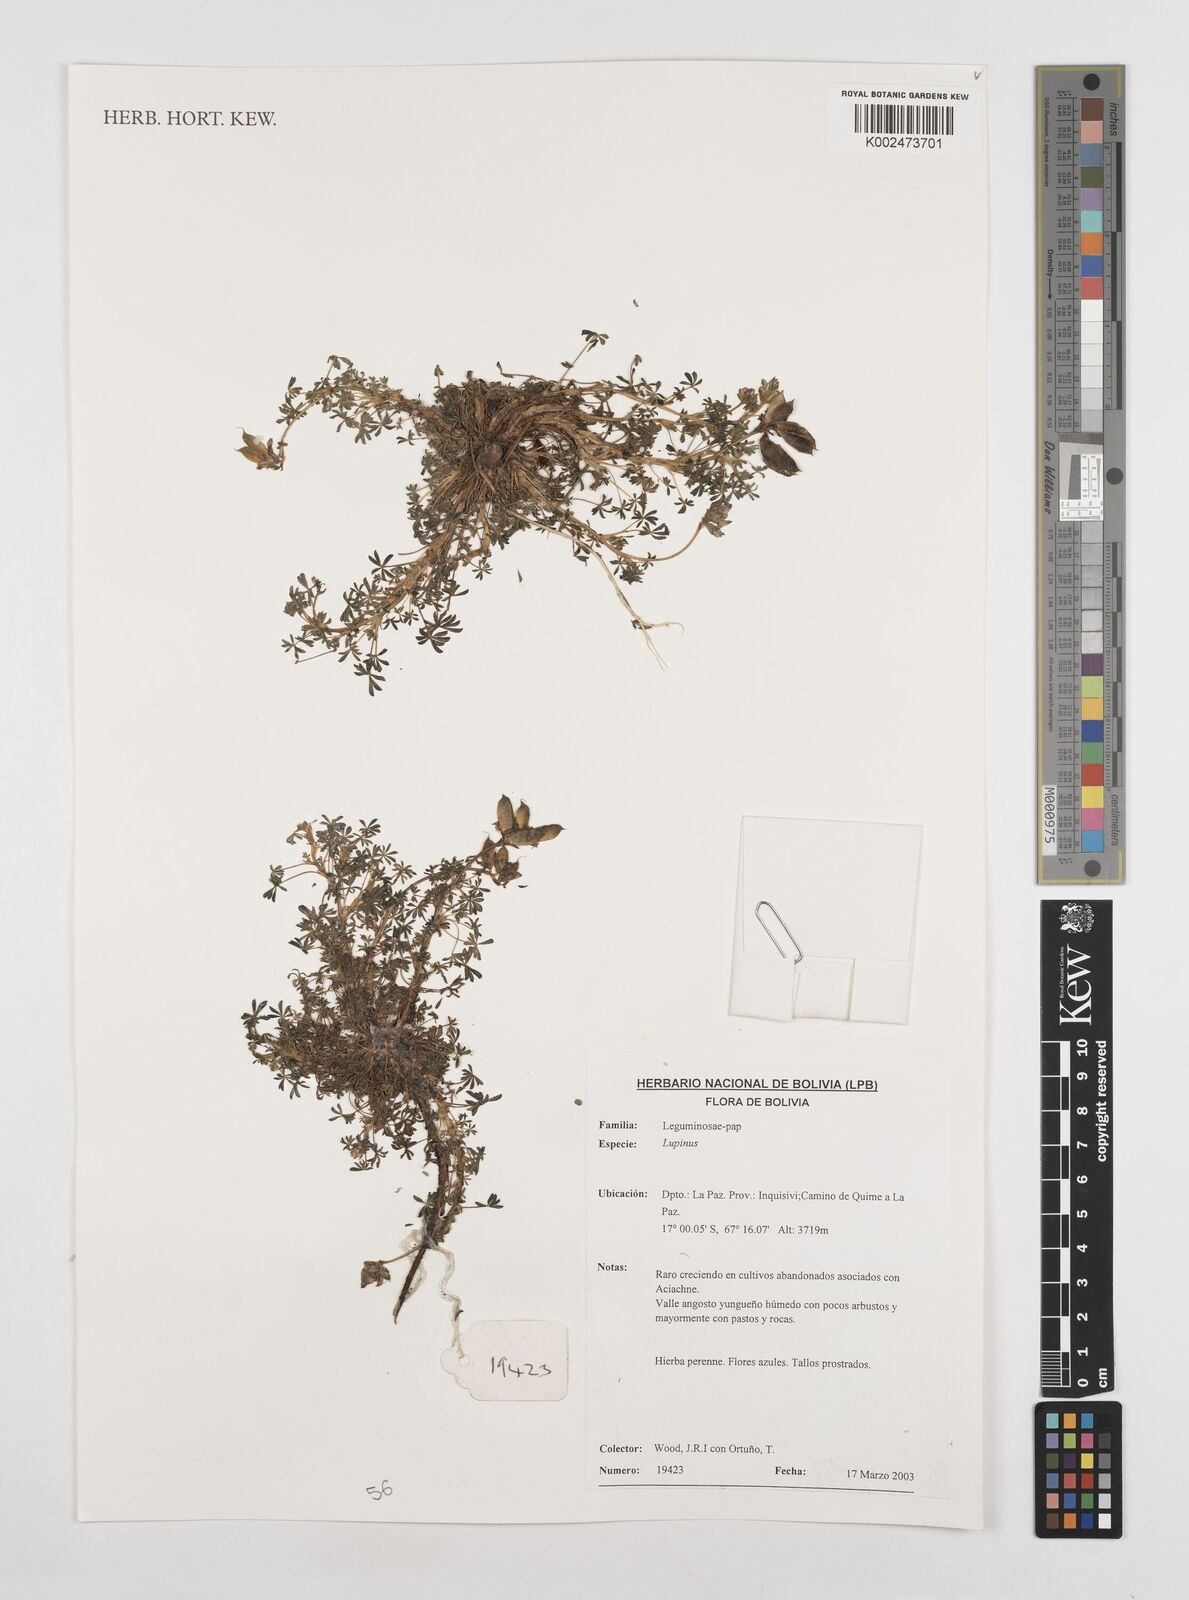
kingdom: Plantae
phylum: Tracheophyta
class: Magnoliopsida
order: Fabales
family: Fabaceae
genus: Lupinus
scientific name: Lupinus
